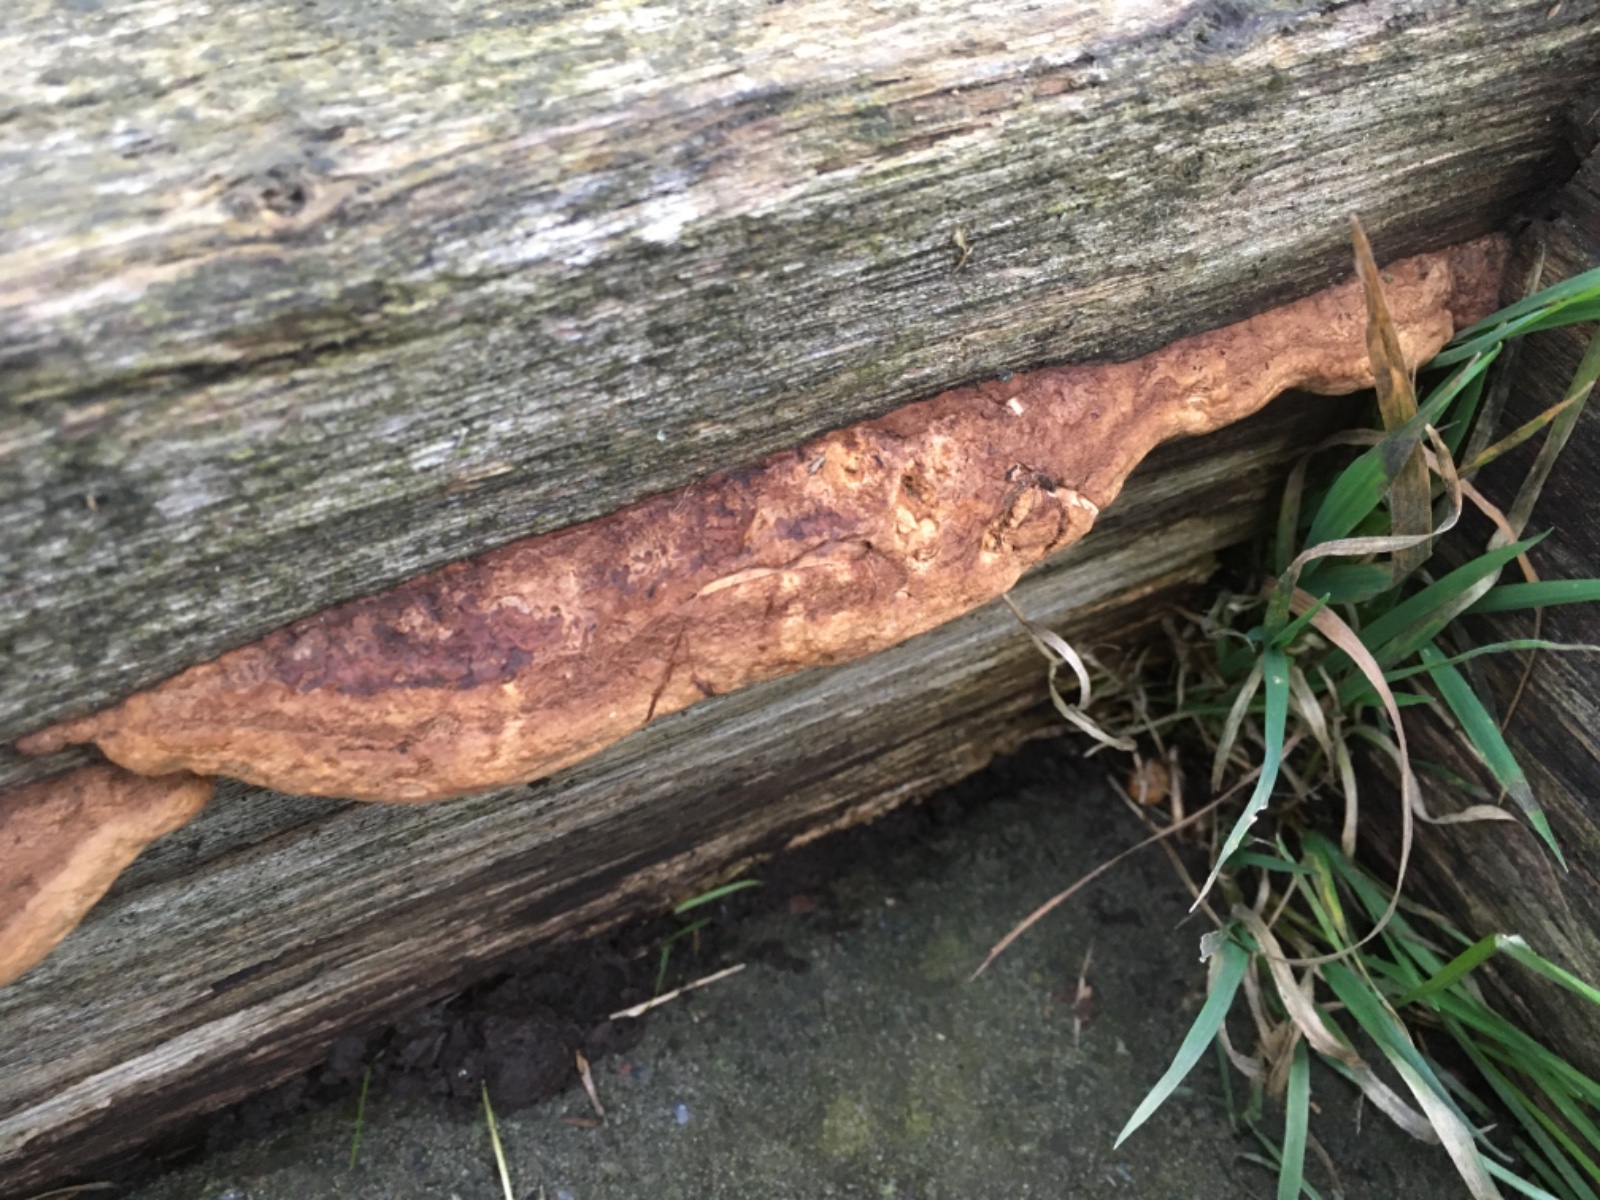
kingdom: Fungi
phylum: Basidiomycota
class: Agaricomycetes
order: Polyporales
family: Fomitopsidaceae
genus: Daedalea
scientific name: Daedalea quercina
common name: ege-labyrintsvamp
